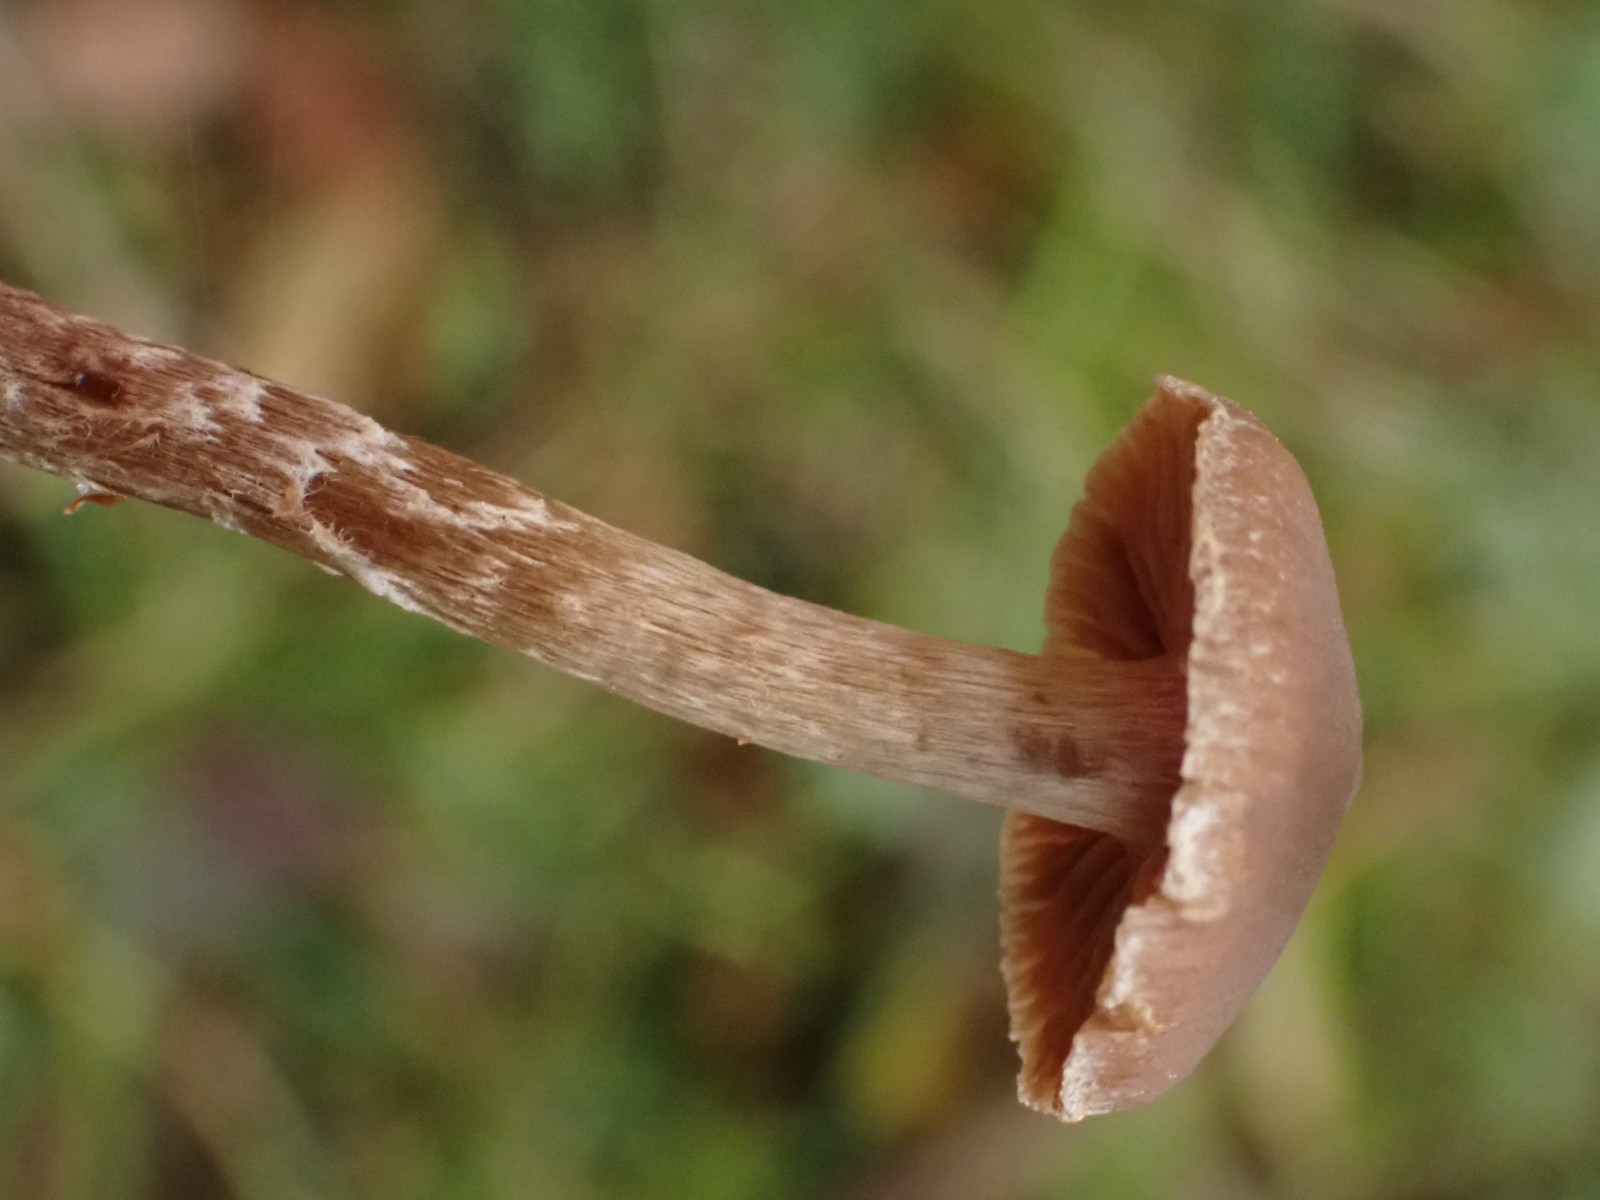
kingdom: Fungi
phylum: Basidiomycota
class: Agaricomycetes
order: Agaricales
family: Cortinariaceae
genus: Cortinarius
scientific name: Cortinarius
